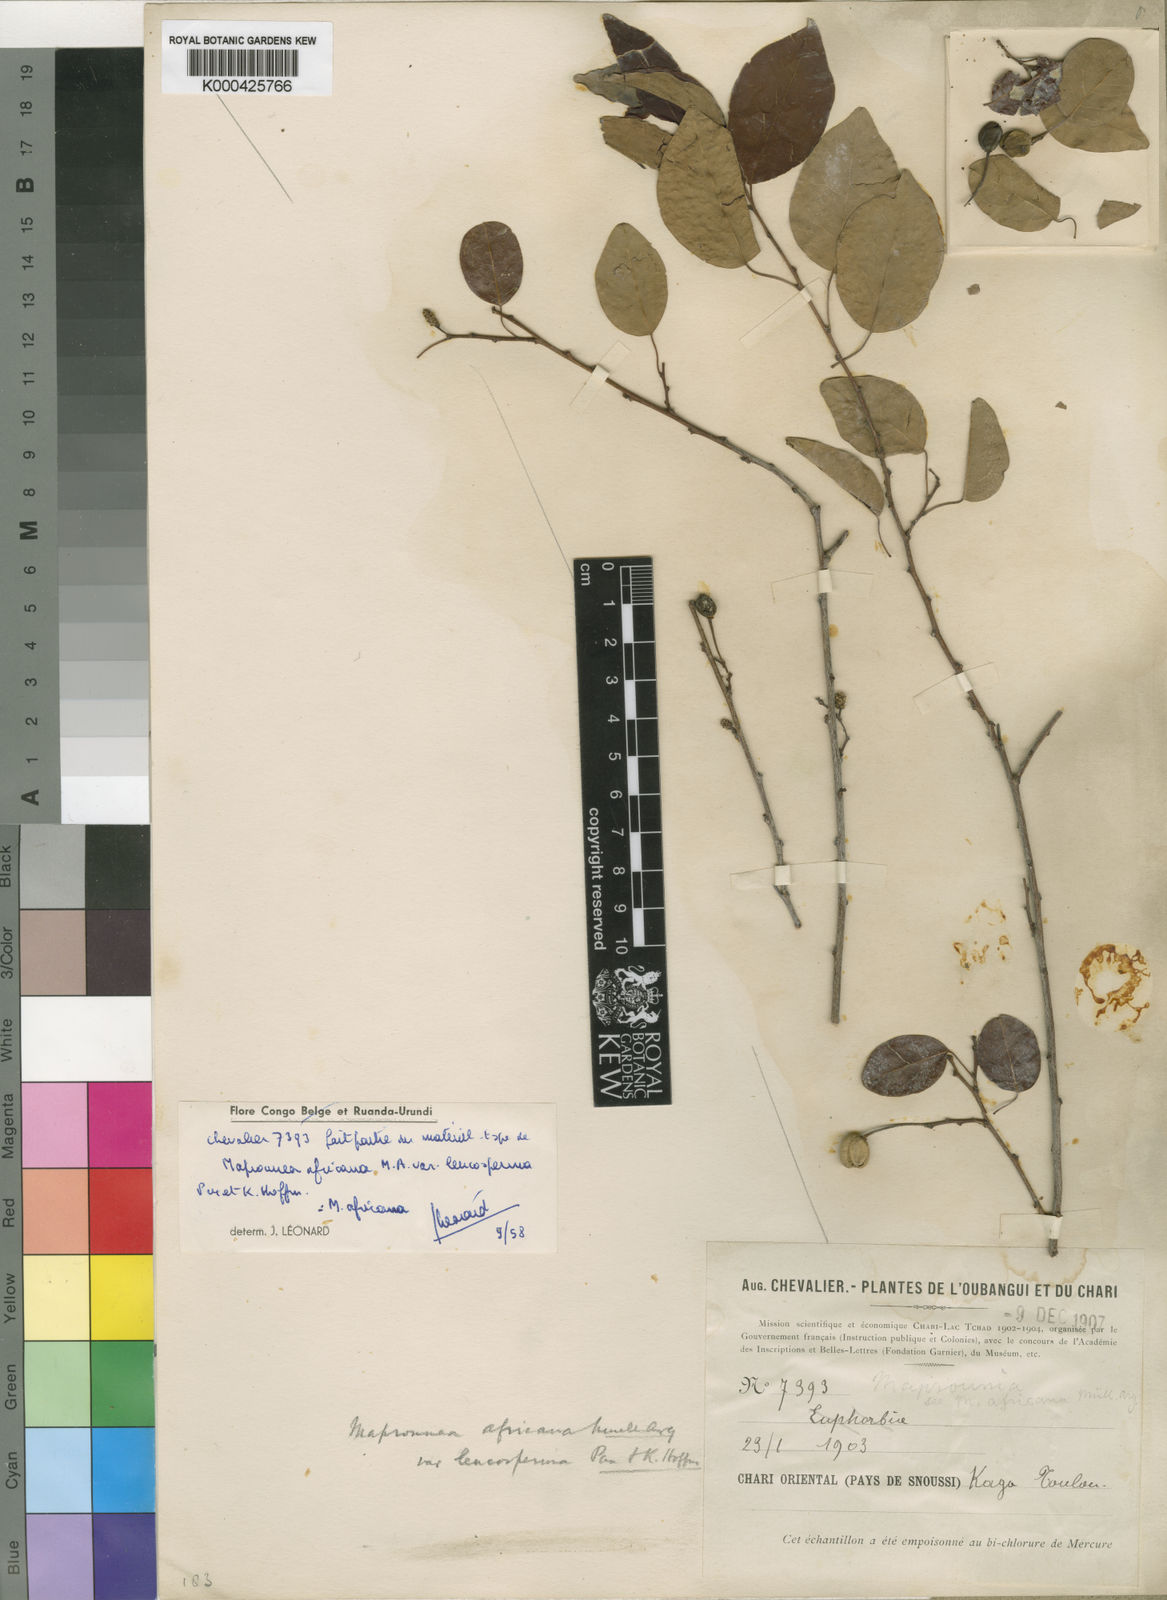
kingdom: Plantae
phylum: Tracheophyta
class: Magnoliopsida
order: Malpighiales
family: Euphorbiaceae
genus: Maprounea
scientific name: Maprounea
